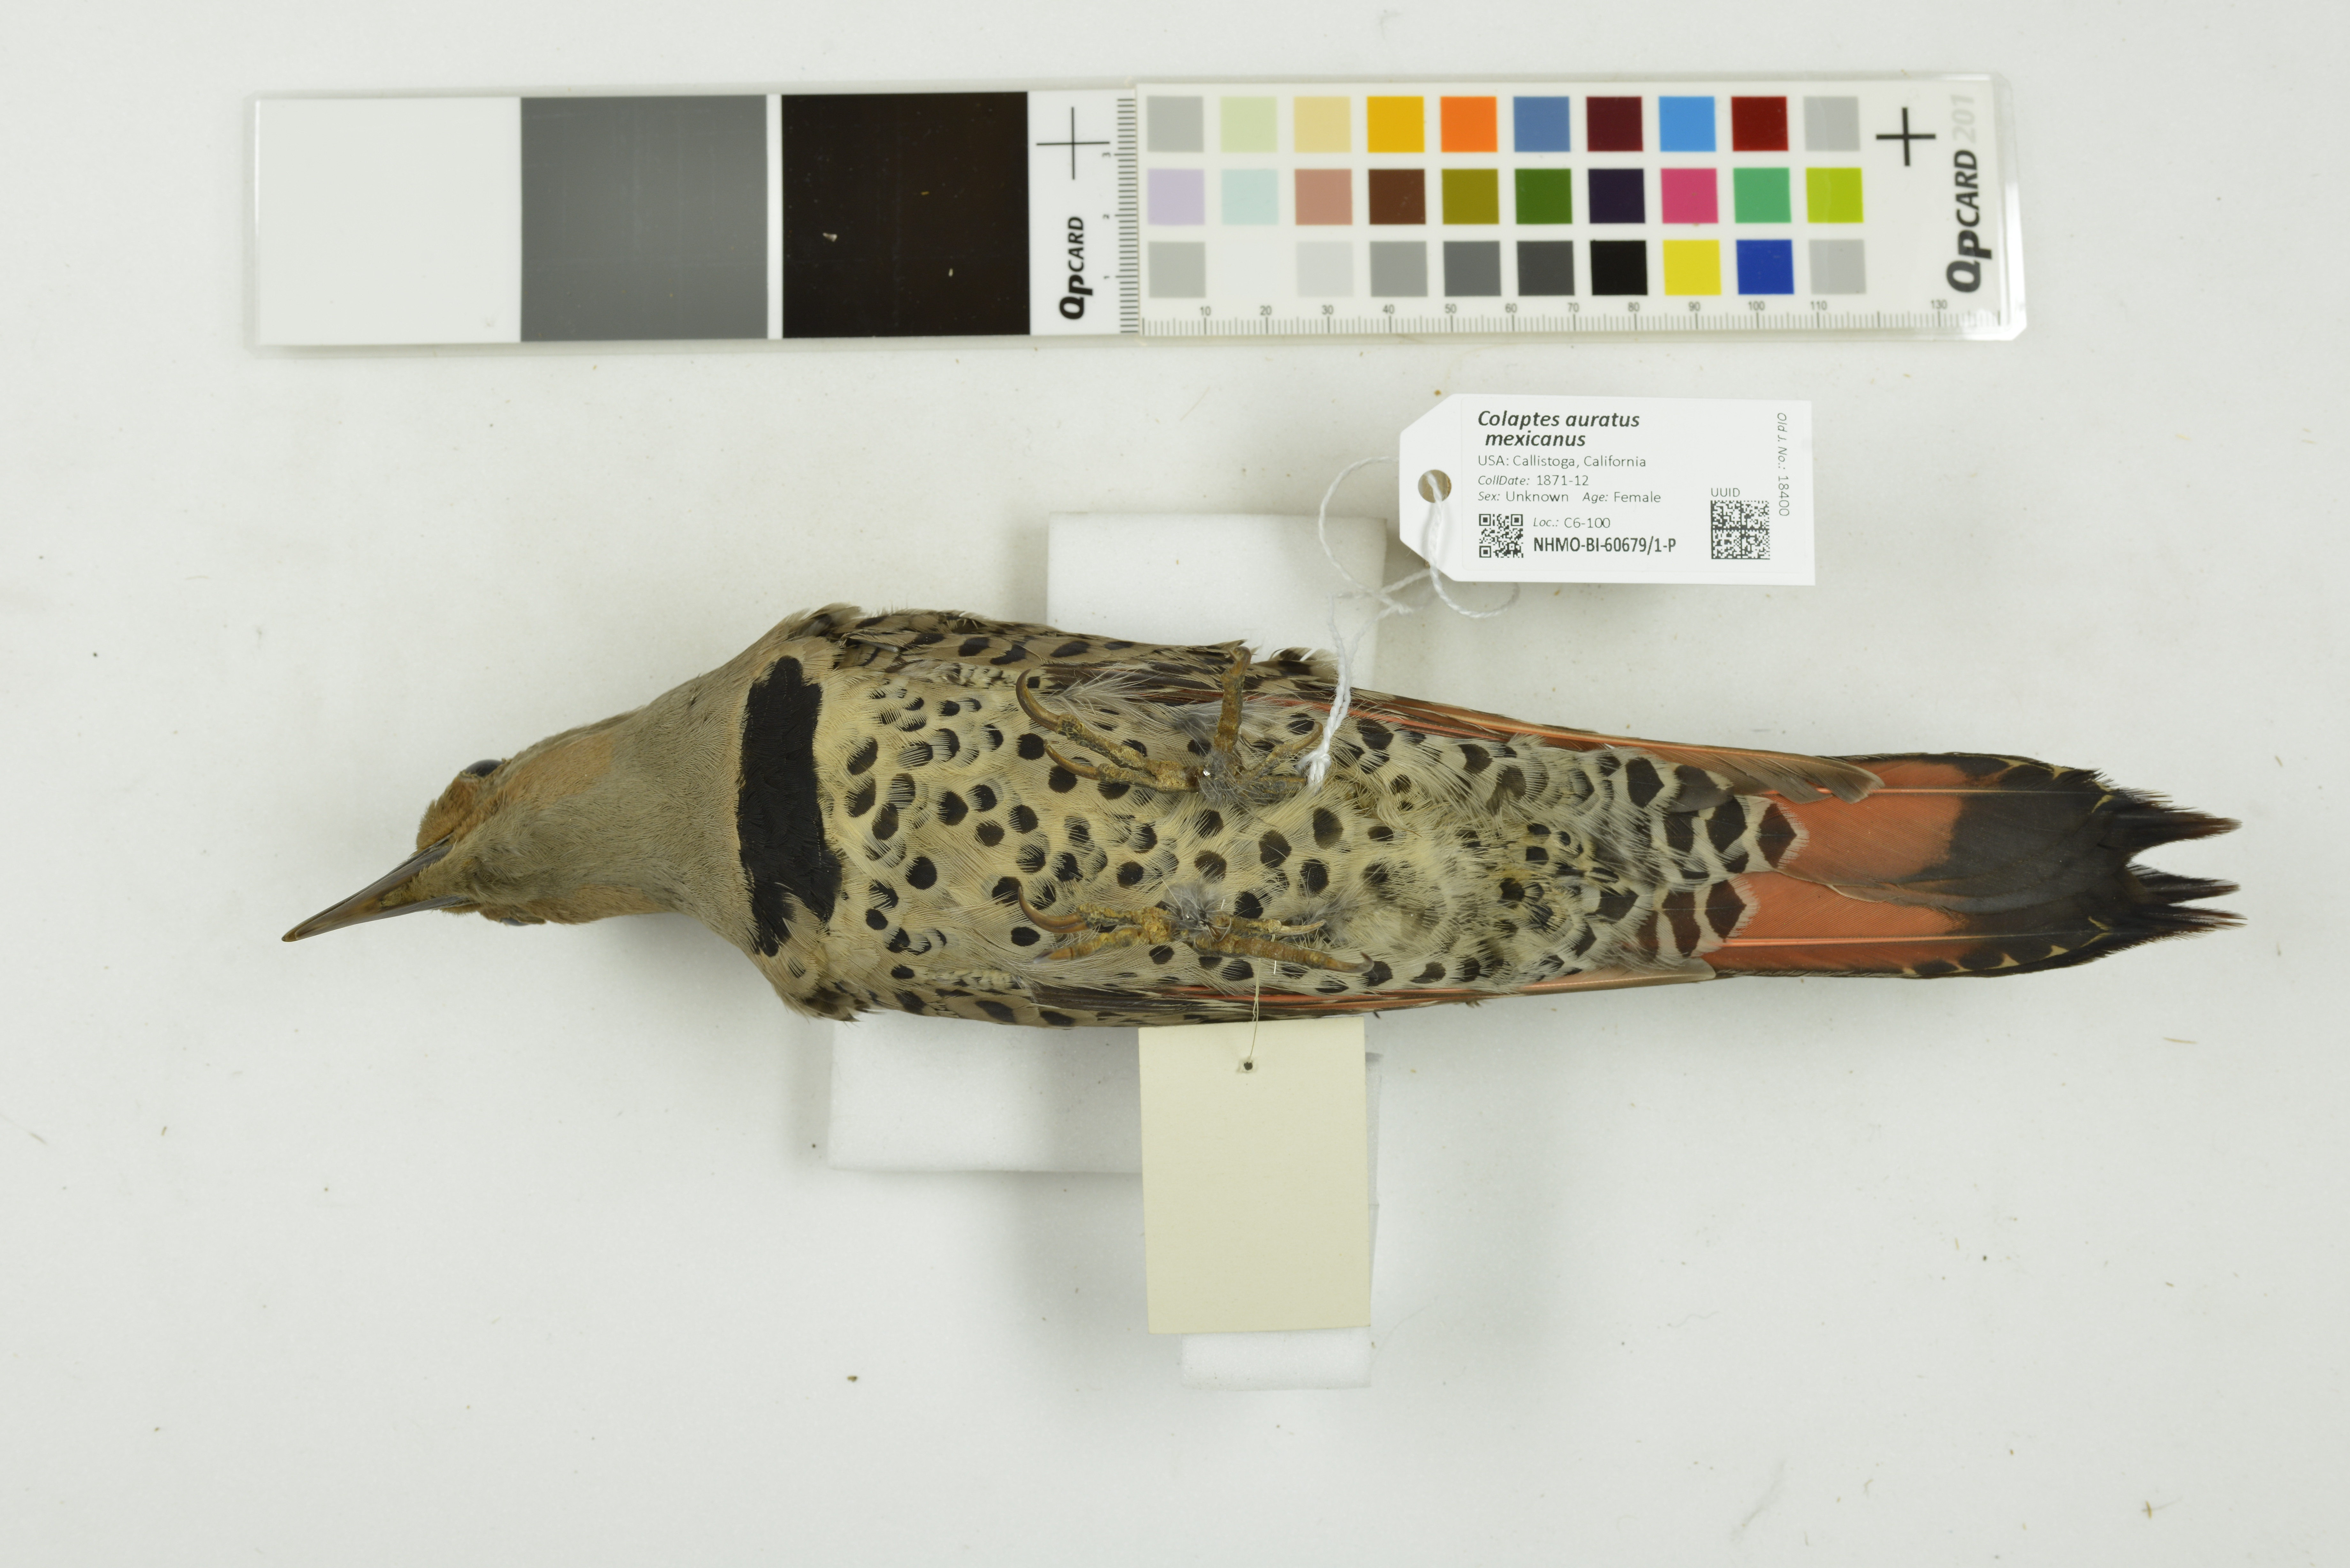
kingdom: Animalia
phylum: Chordata
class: Aves
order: Piciformes
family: Picidae
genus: Colaptes
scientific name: Colaptes auratus
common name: Northern flicker
